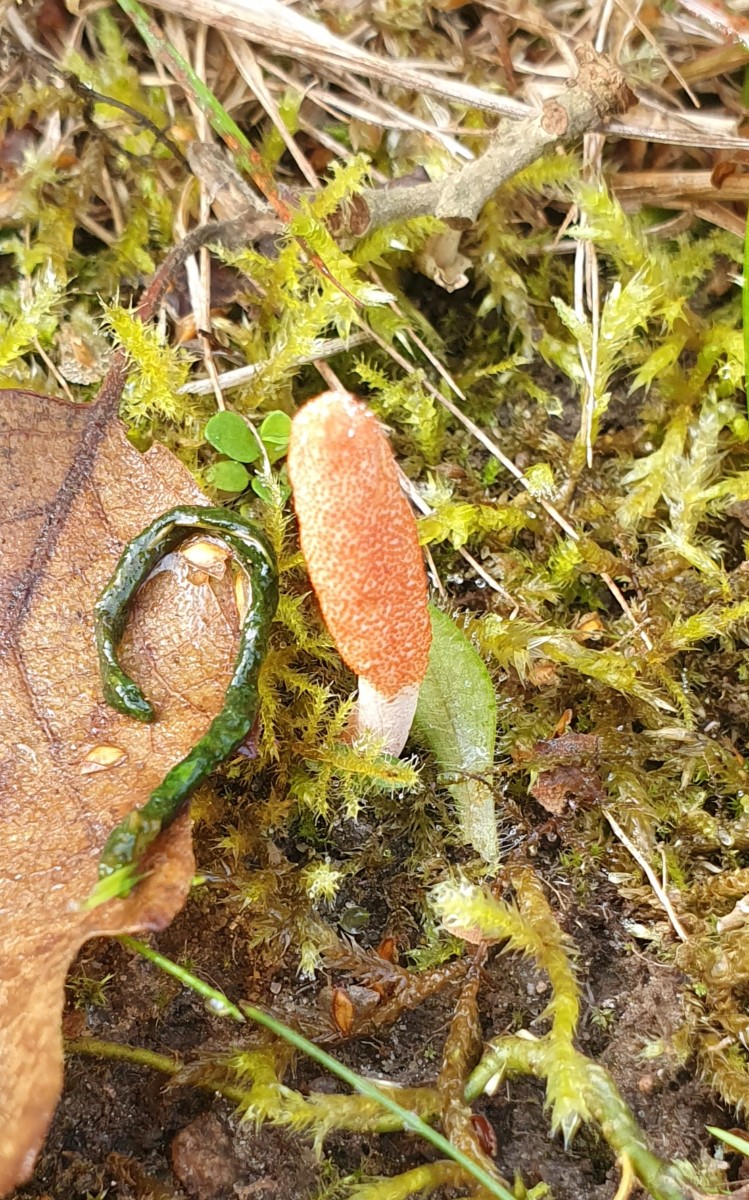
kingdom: Fungi
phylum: Ascomycota
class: Sordariomycetes
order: Hypocreales
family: Cordycipitaceae
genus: Cordyceps
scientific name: Cordyceps militaris
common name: puppe-snyltekølle
